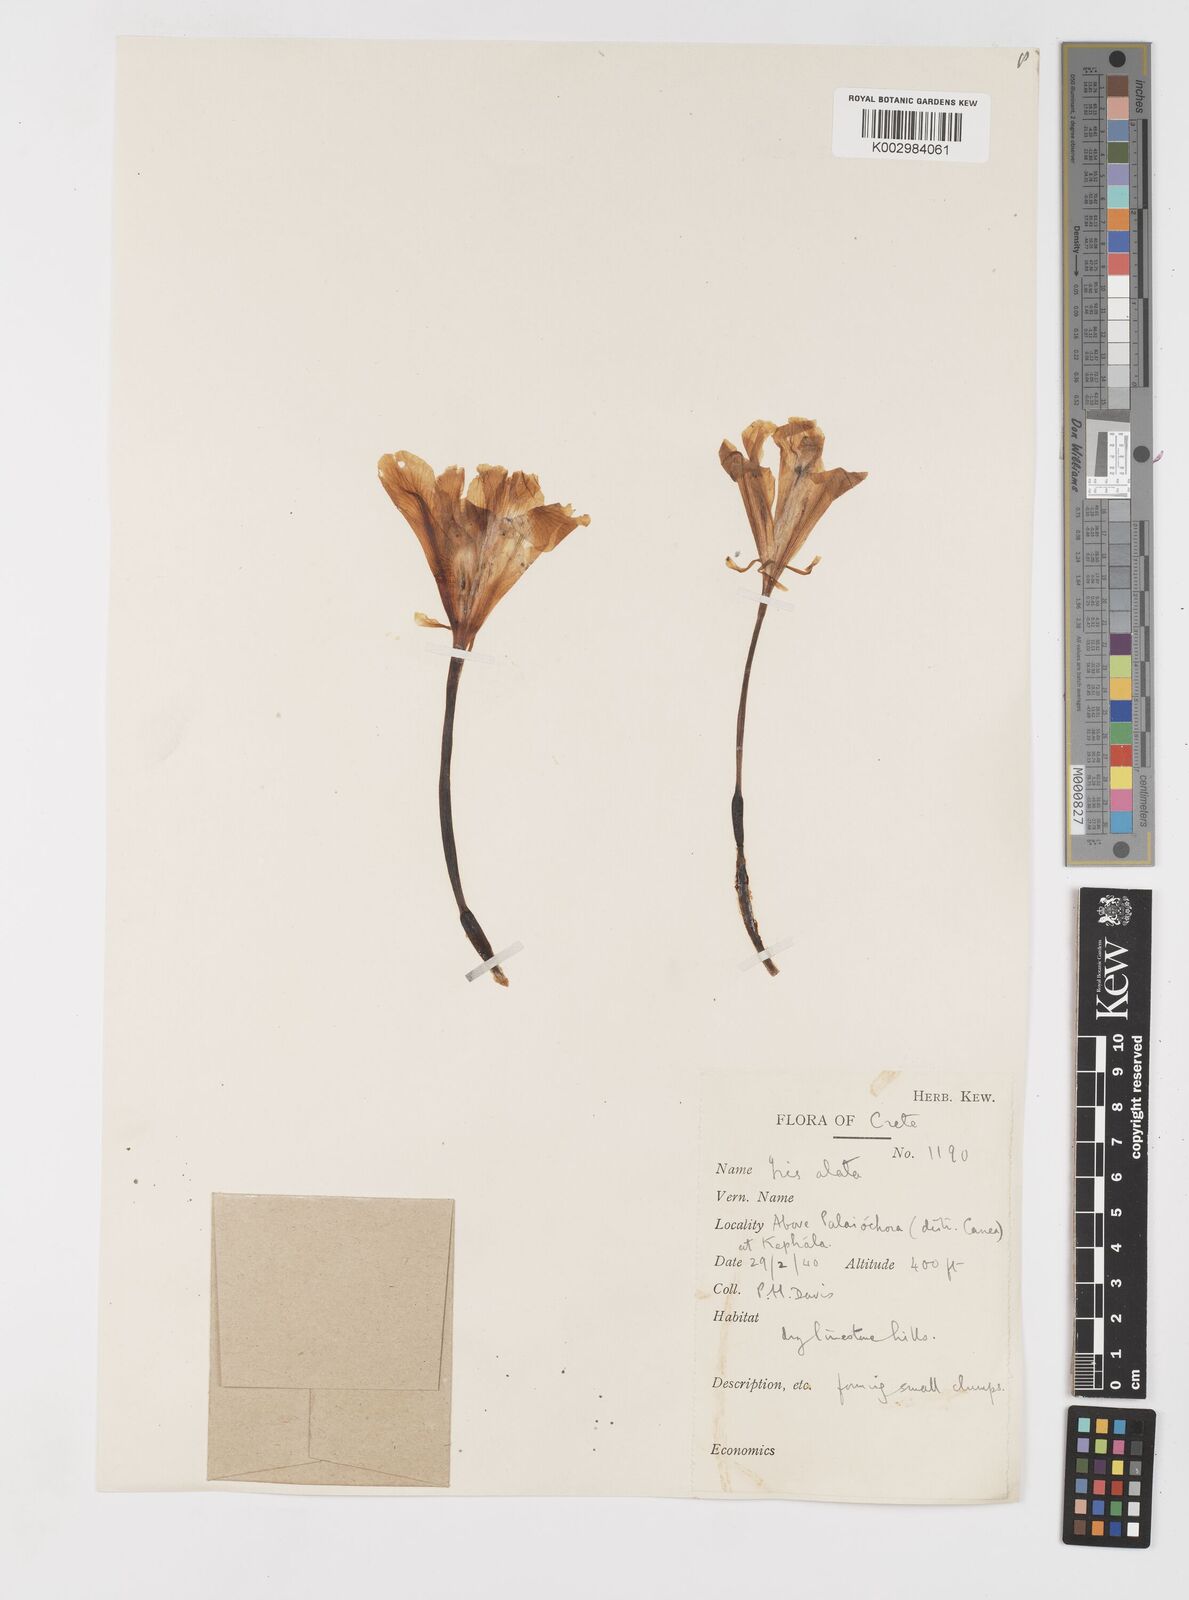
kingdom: Plantae
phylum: Tracheophyta
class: Liliopsida
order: Asparagales
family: Iridaceae
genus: Iris
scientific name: Iris planifolia
